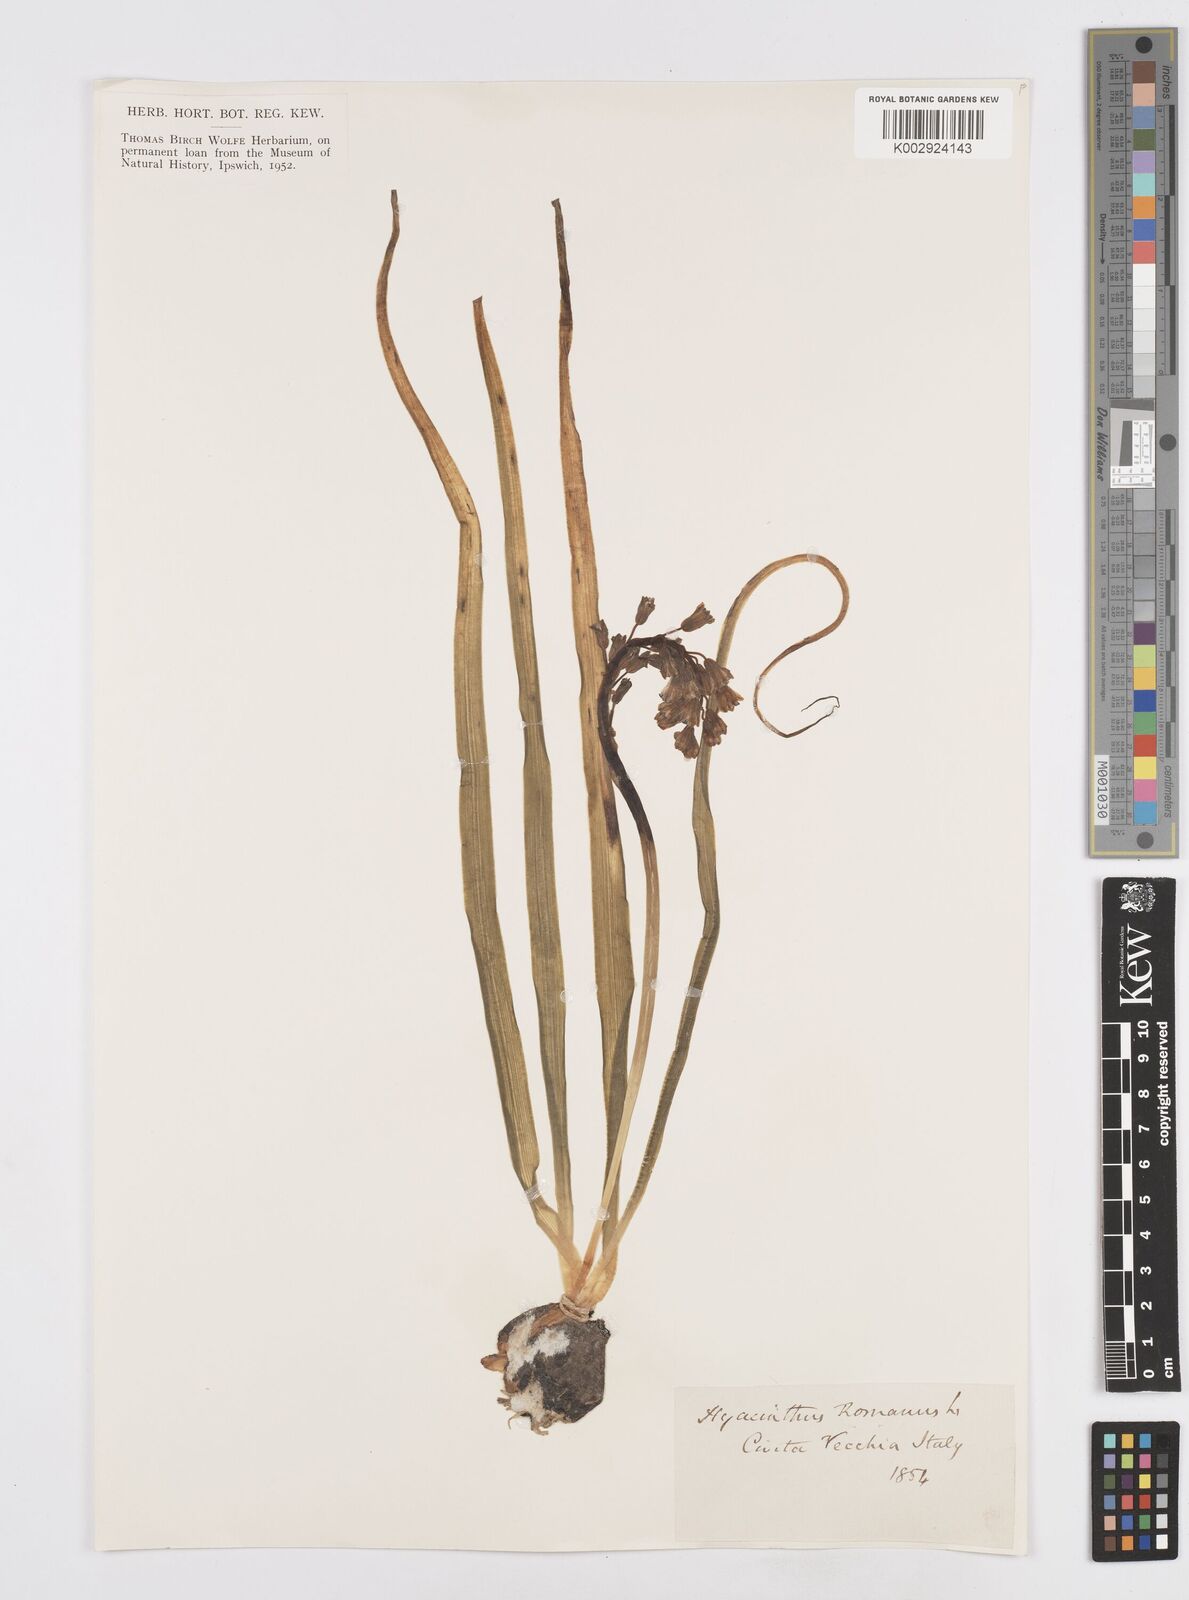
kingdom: Plantae
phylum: Tracheophyta
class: Liliopsida
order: Asparagales
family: Asparagaceae
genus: Bellevalia
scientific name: Bellevalia
